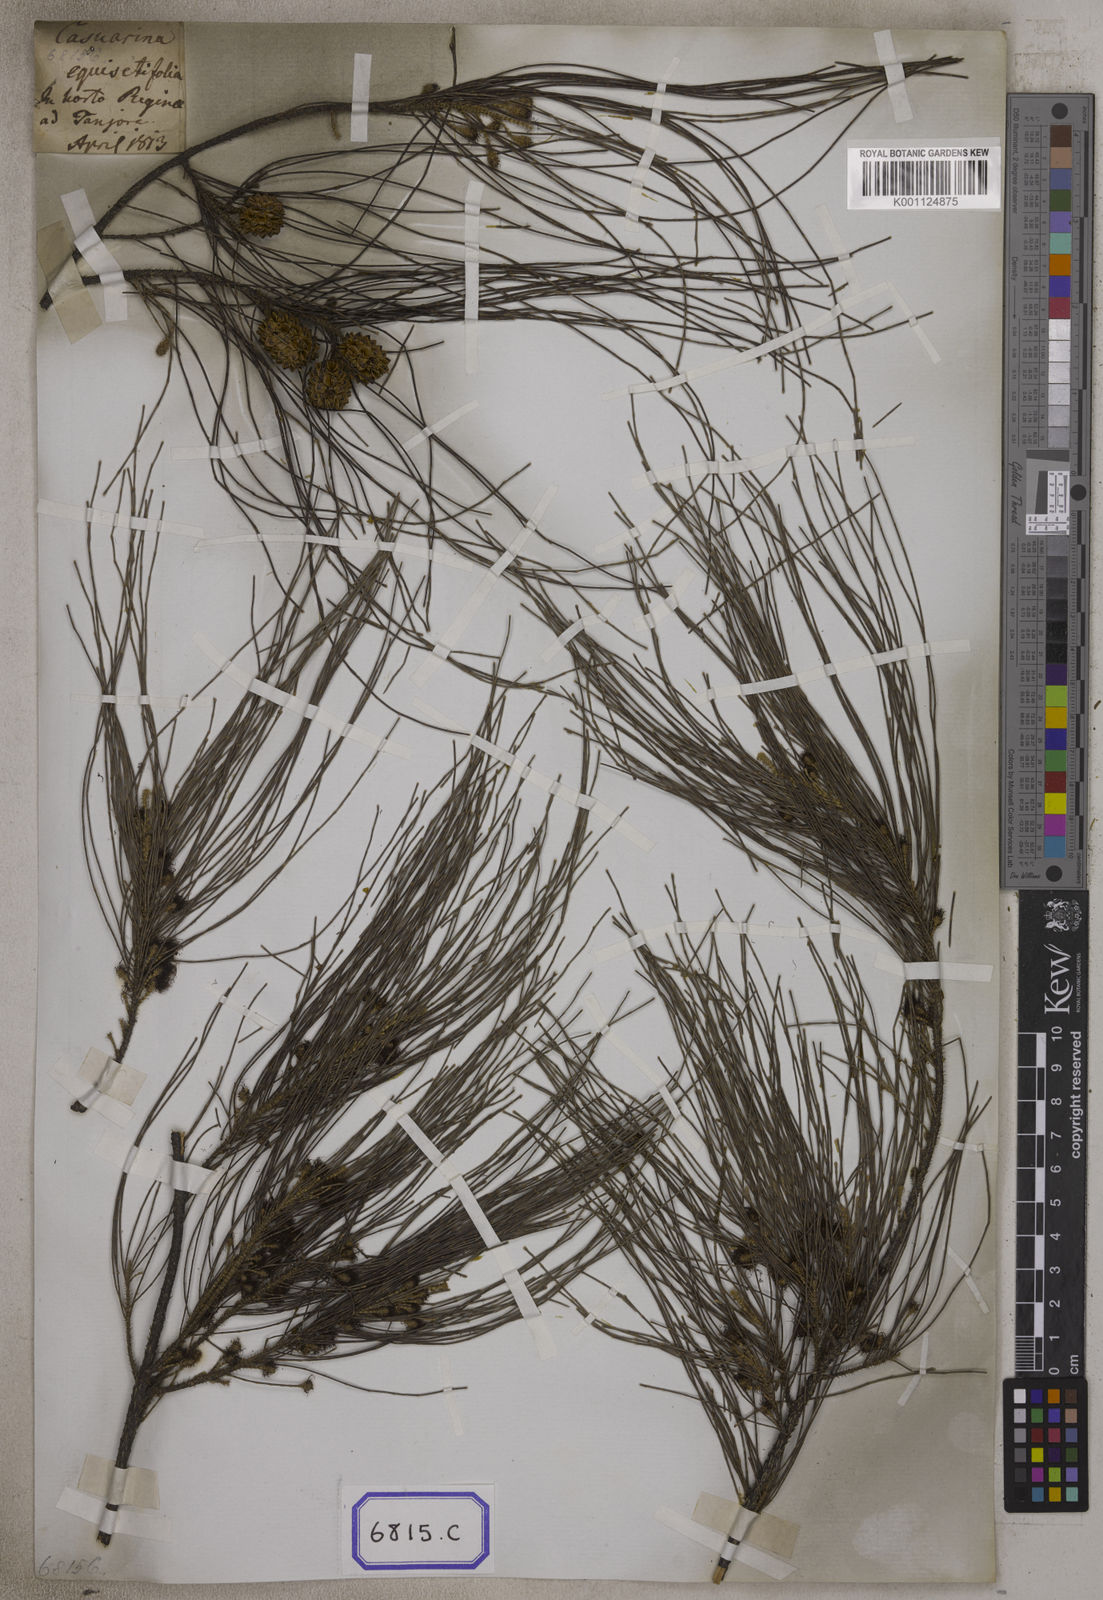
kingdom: Plantae
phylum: Tracheophyta
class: Magnoliopsida
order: Fagales
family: Casuarinaceae
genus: Casuarina
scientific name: Casuarina
